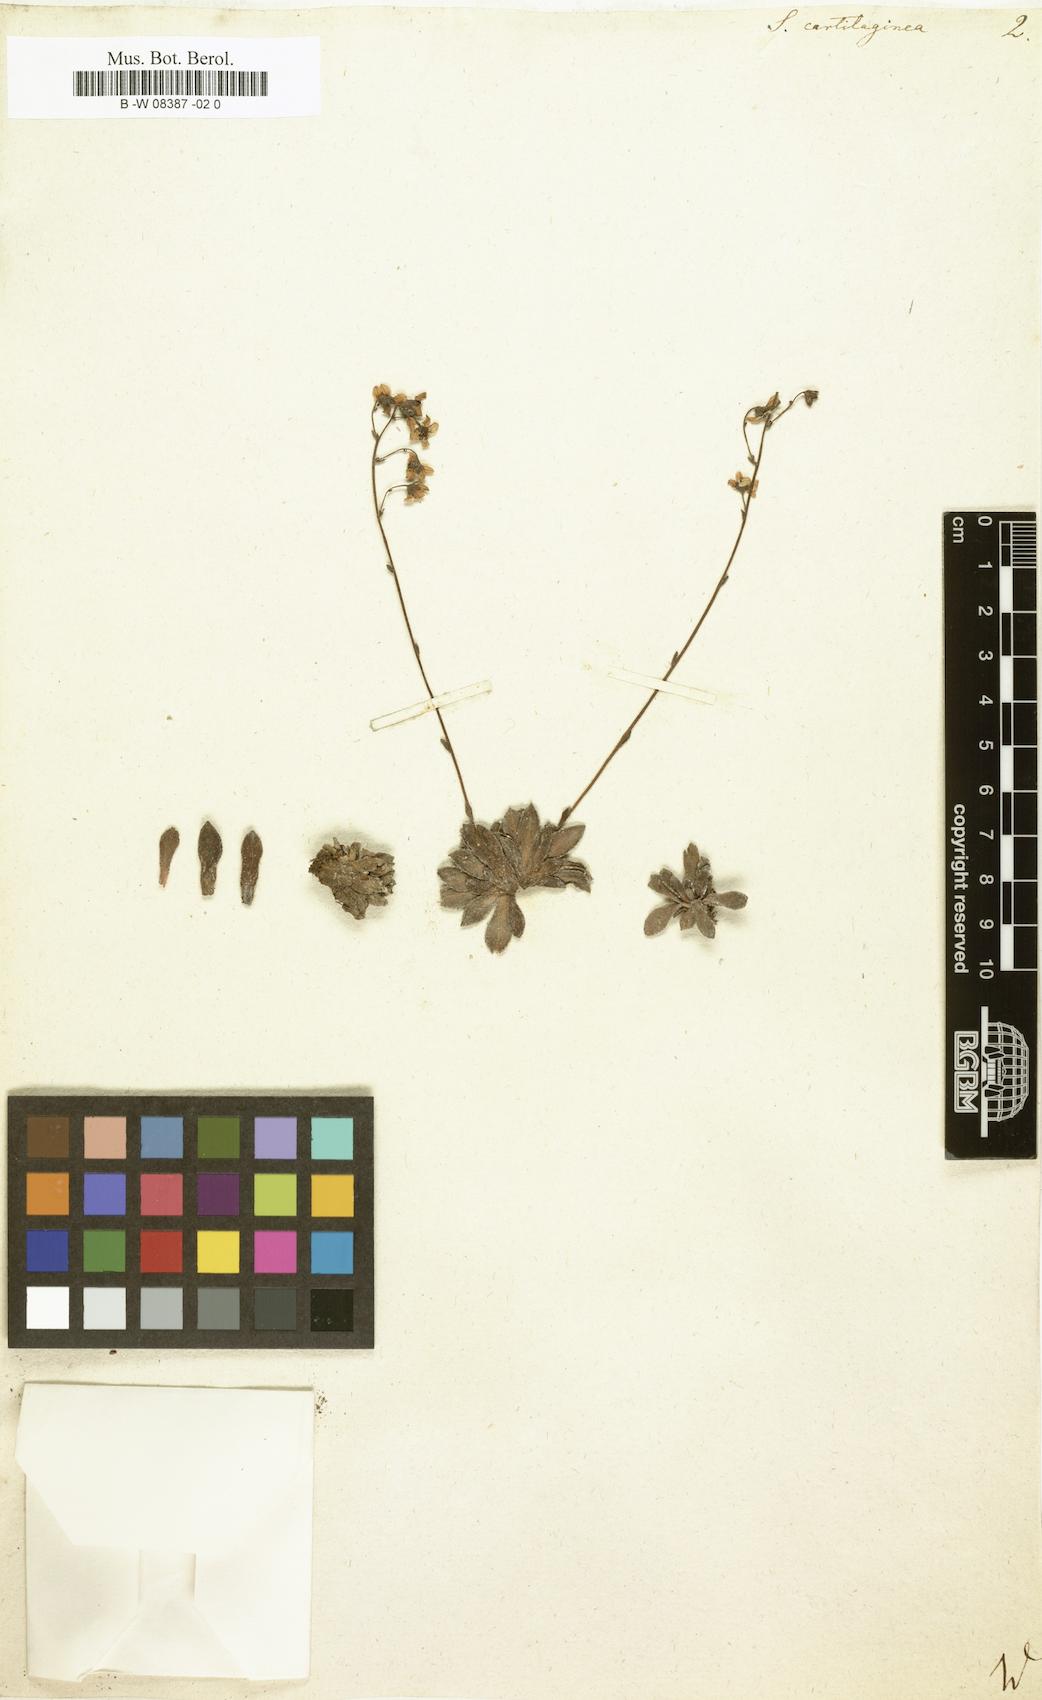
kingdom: Plantae
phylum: Tracheophyta
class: Magnoliopsida
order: Saxifragales
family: Saxifragaceae
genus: Saxifraga
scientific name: Saxifraga paniculata
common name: Livelong saxifrage
